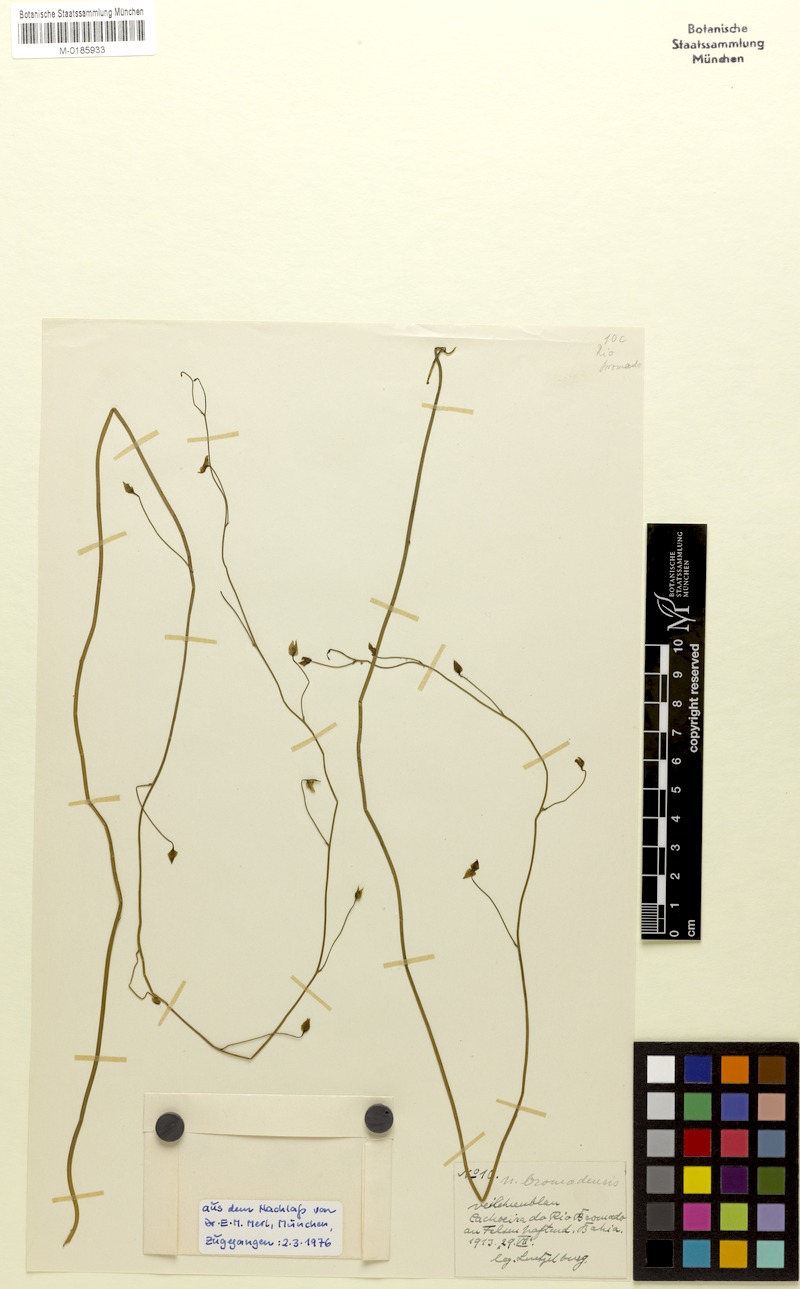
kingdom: Plantae
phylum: Tracheophyta
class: Magnoliopsida
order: Lamiales
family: Lentibulariaceae
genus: Utricularia
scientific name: Utricularia longifolia
